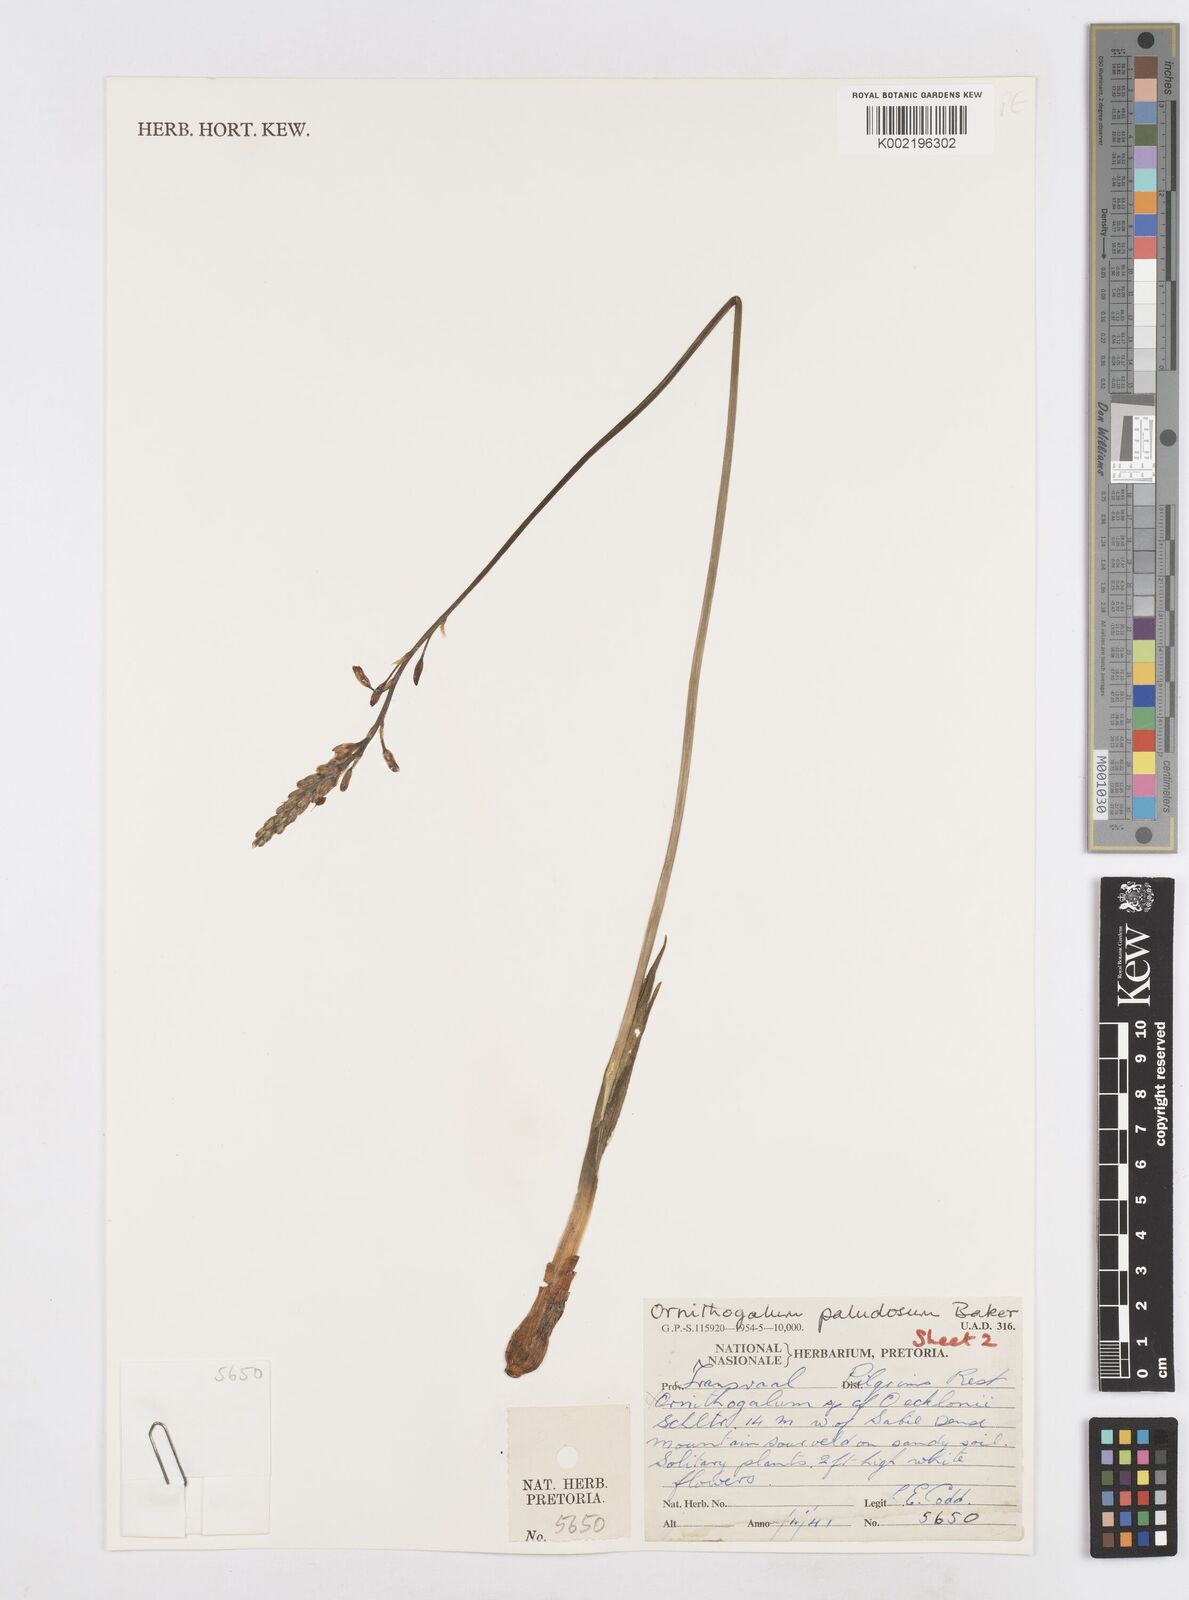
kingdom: Plantae
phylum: Tracheophyta
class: Liliopsida
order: Asparagales
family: Asparagaceae
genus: Ornithogalum
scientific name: Ornithogalum paludosum
